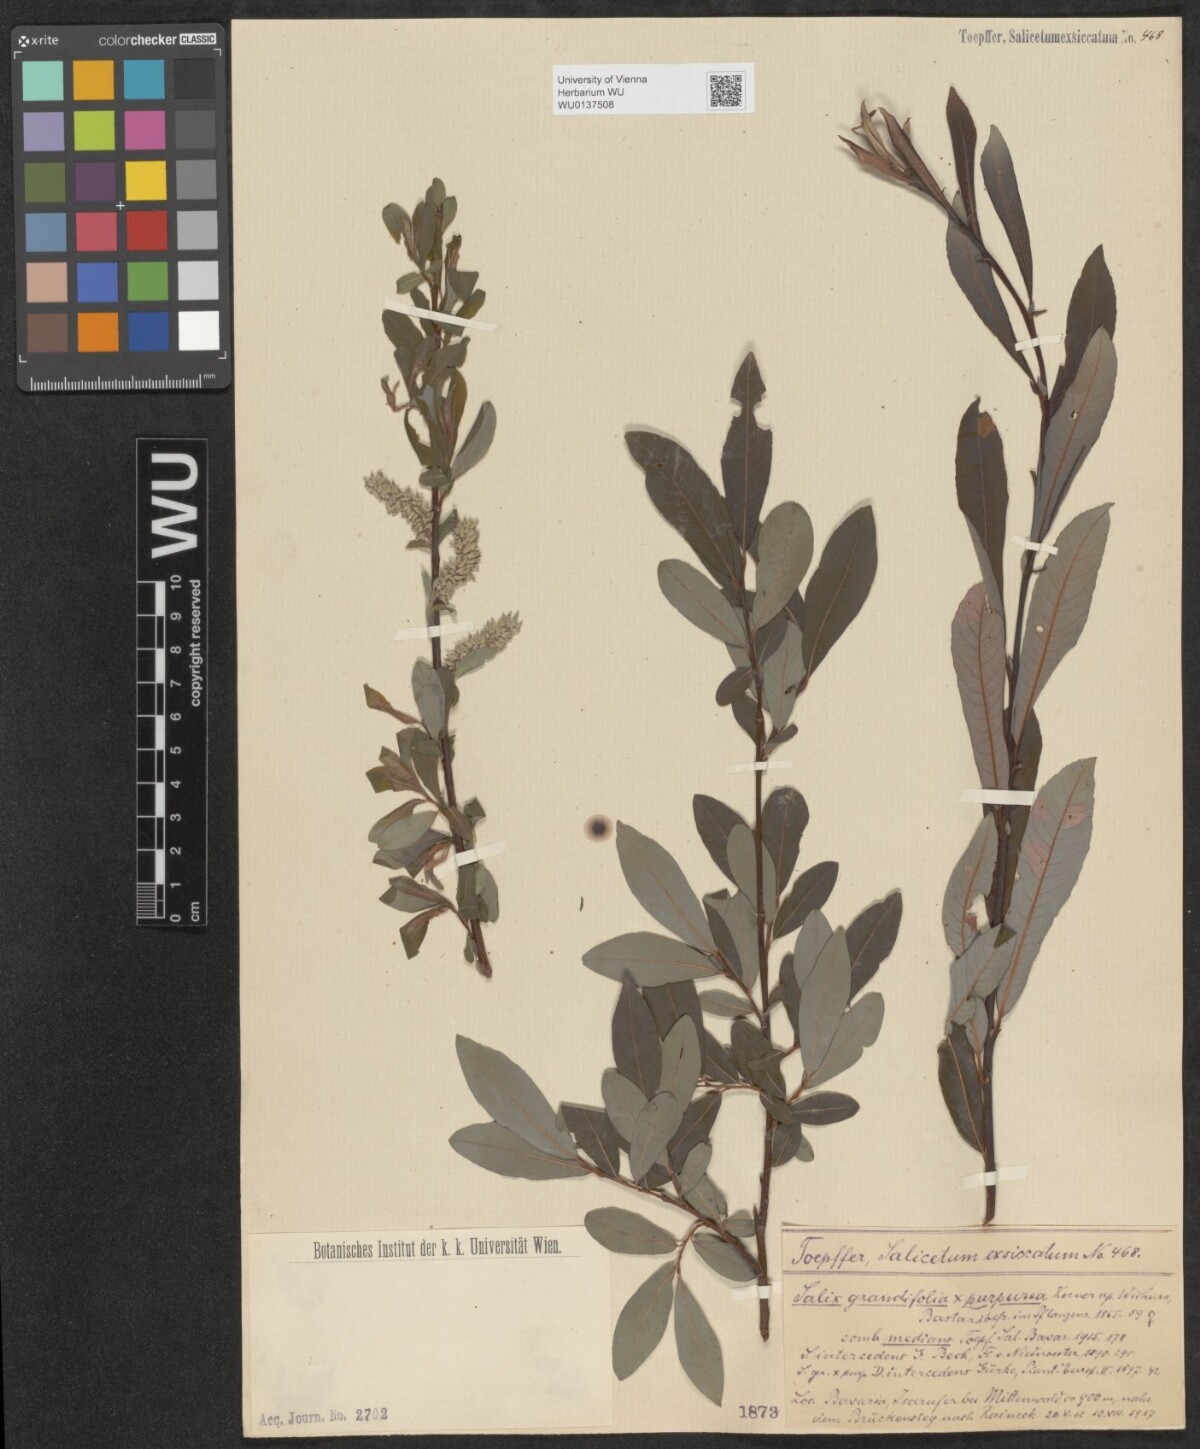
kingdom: Plantae
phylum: Tracheophyta
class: Magnoliopsida
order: Malpighiales
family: Salicaceae
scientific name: Salicaceae
